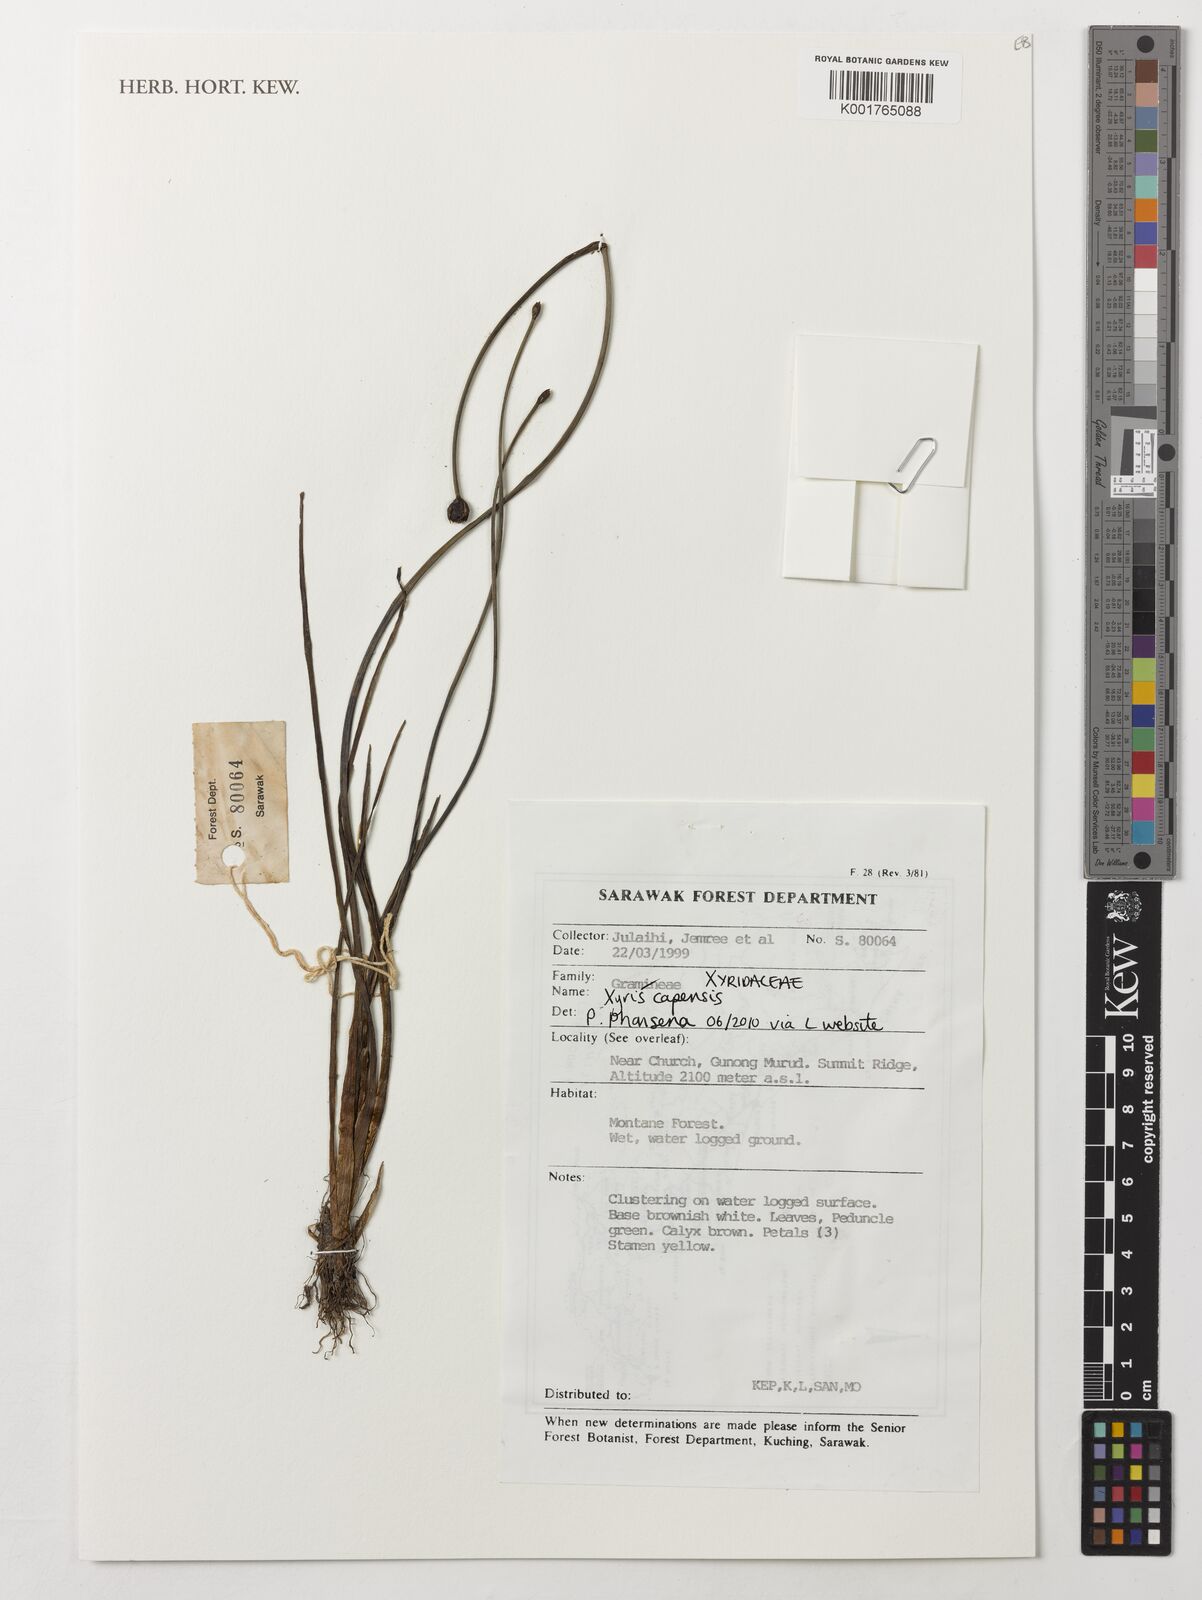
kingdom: Plantae
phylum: Tracheophyta
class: Liliopsida
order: Poales
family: Xyridaceae
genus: Xyris
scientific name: Xyris capensis
